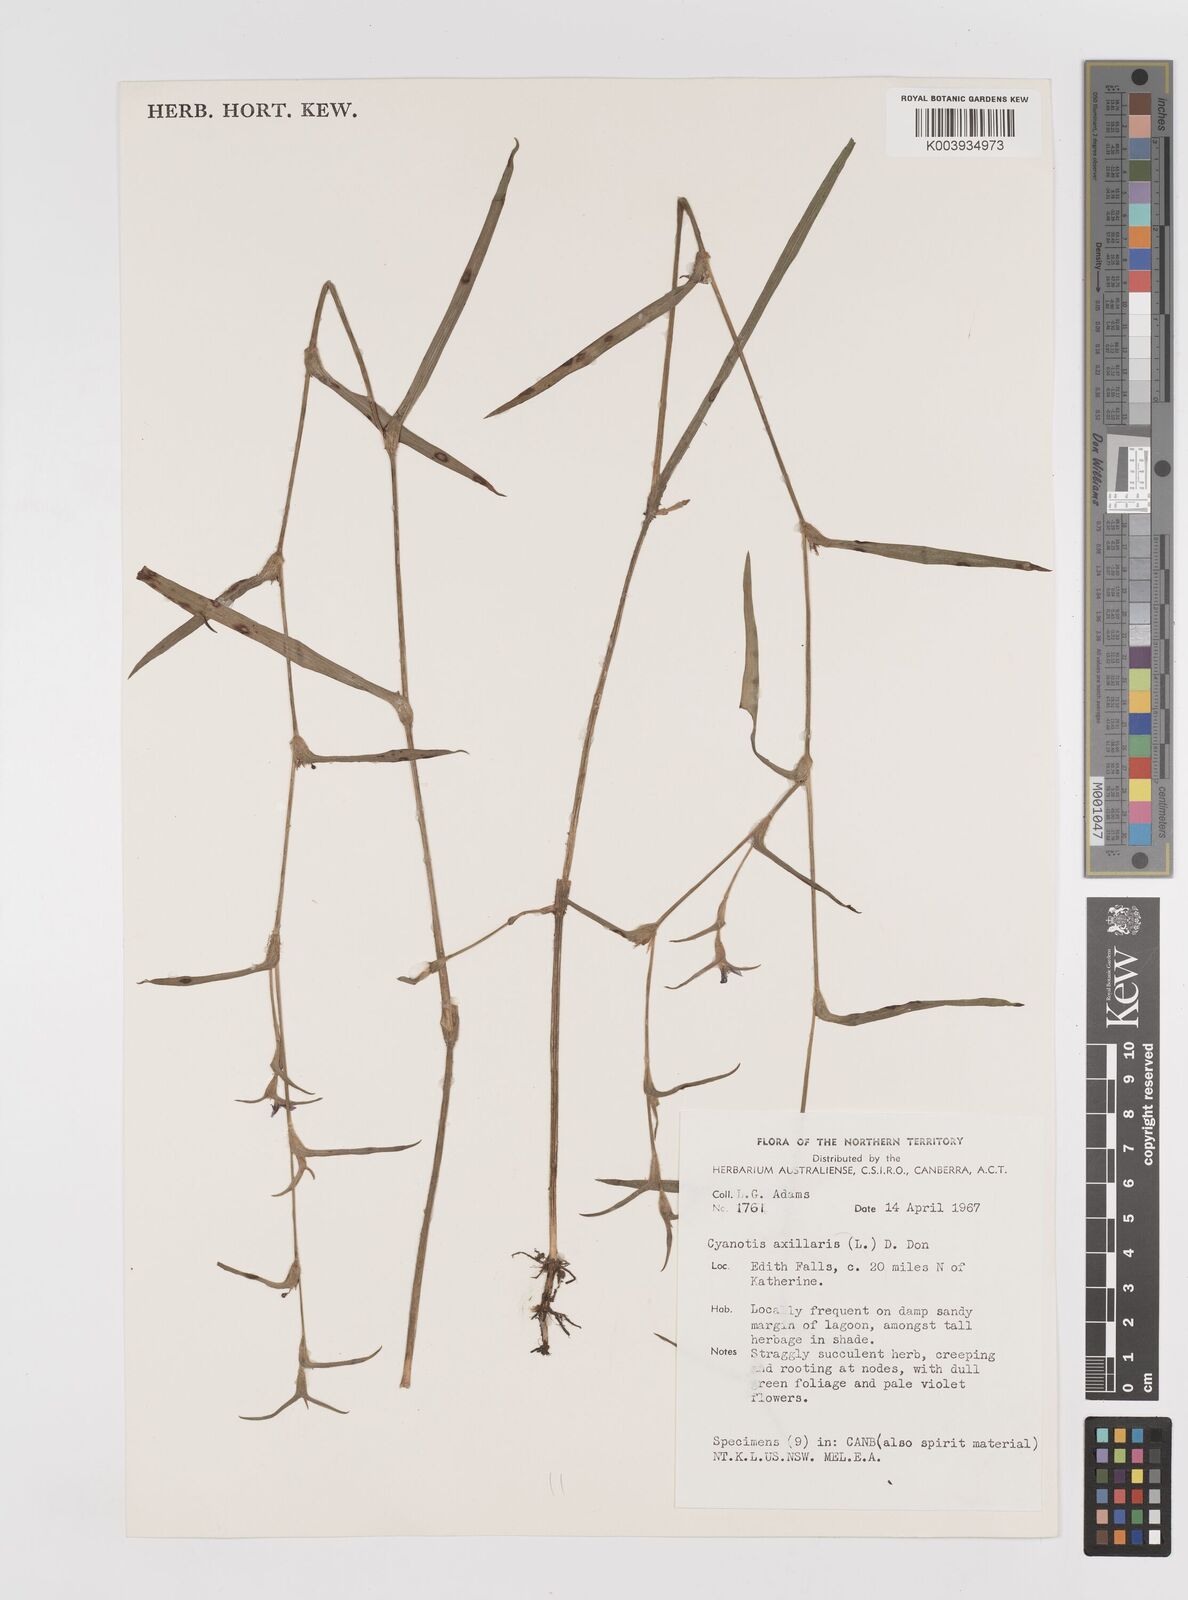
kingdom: Plantae
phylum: Tracheophyta
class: Liliopsida
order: Commelinales
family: Commelinaceae
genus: Cyanotis
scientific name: Cyanotis axillaris
